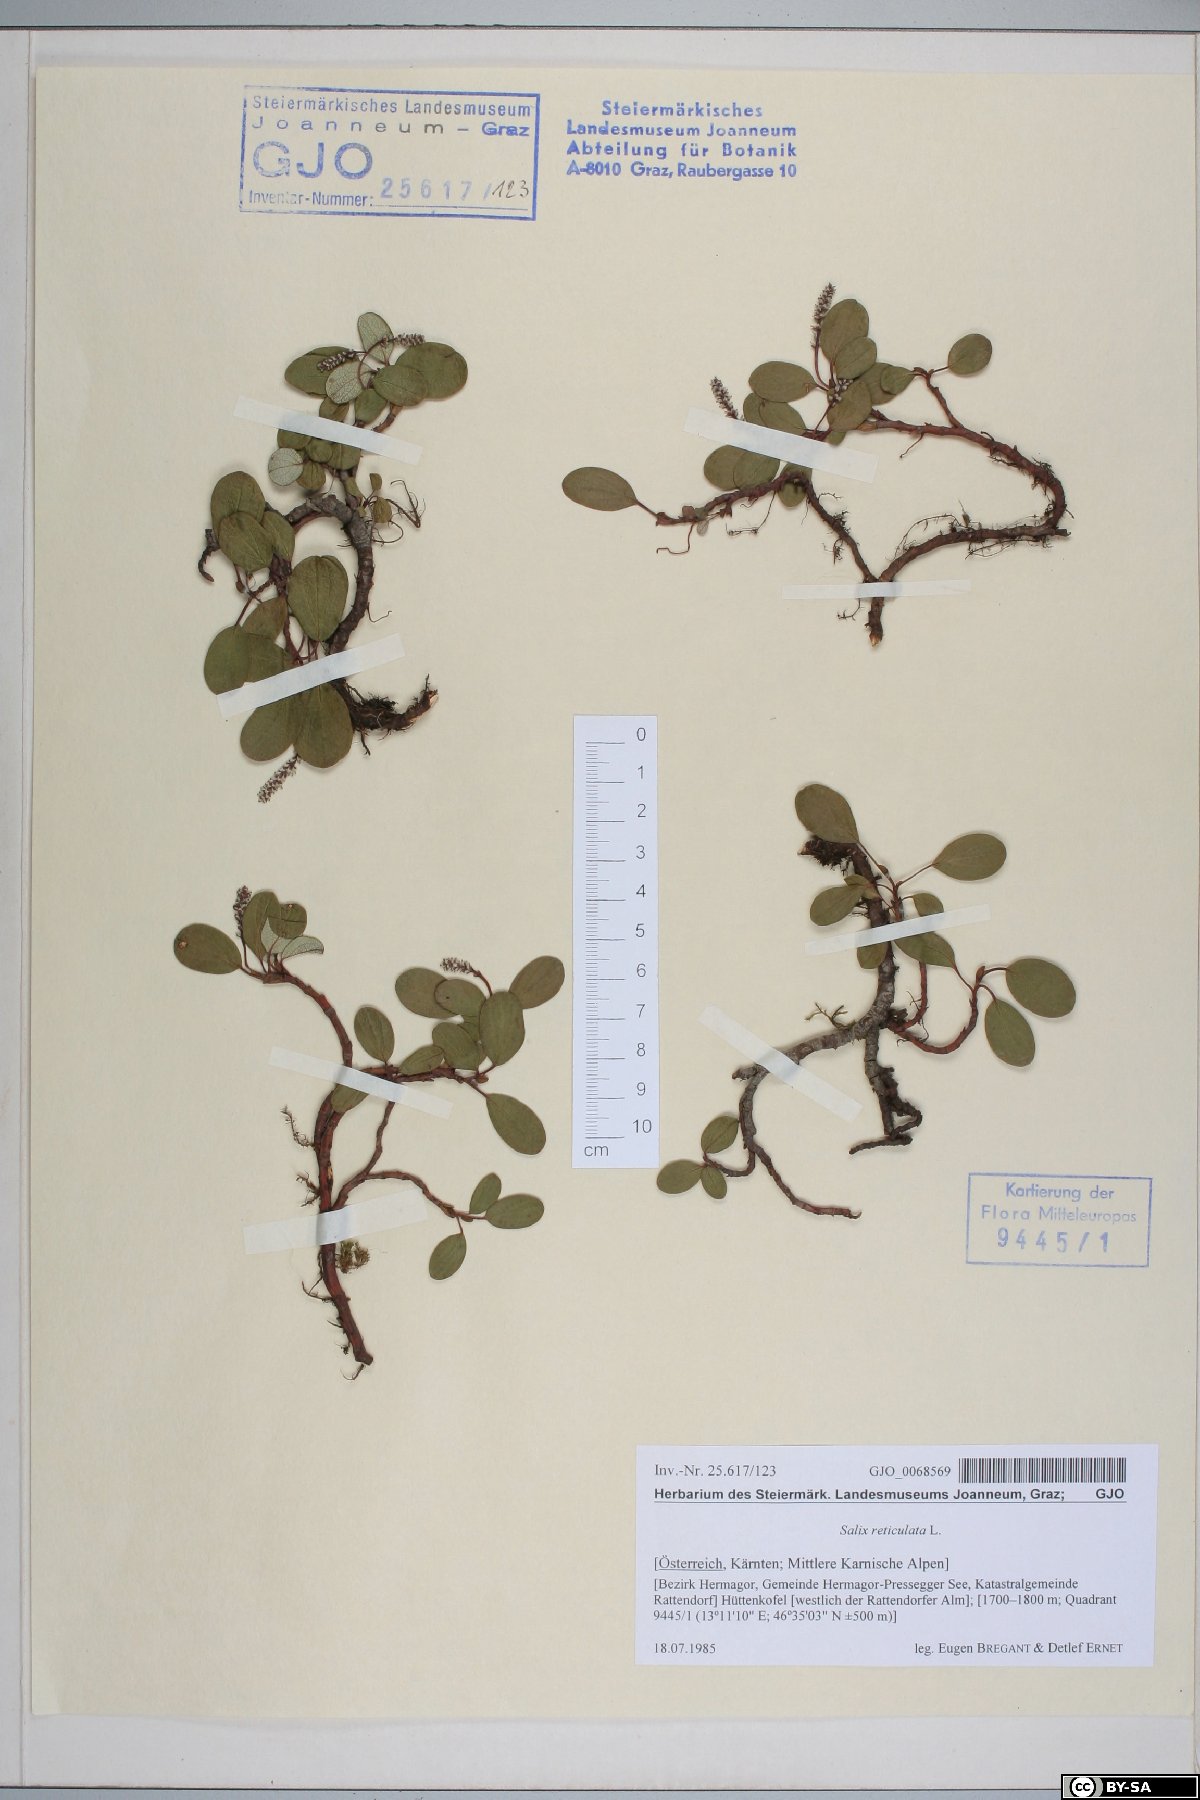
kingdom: Plantae
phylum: Tracheophyta
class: Magnoliopsida
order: Malpighiales
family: Salicaceae
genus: Salix
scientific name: Salix reticulata
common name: Net-leaved willow
